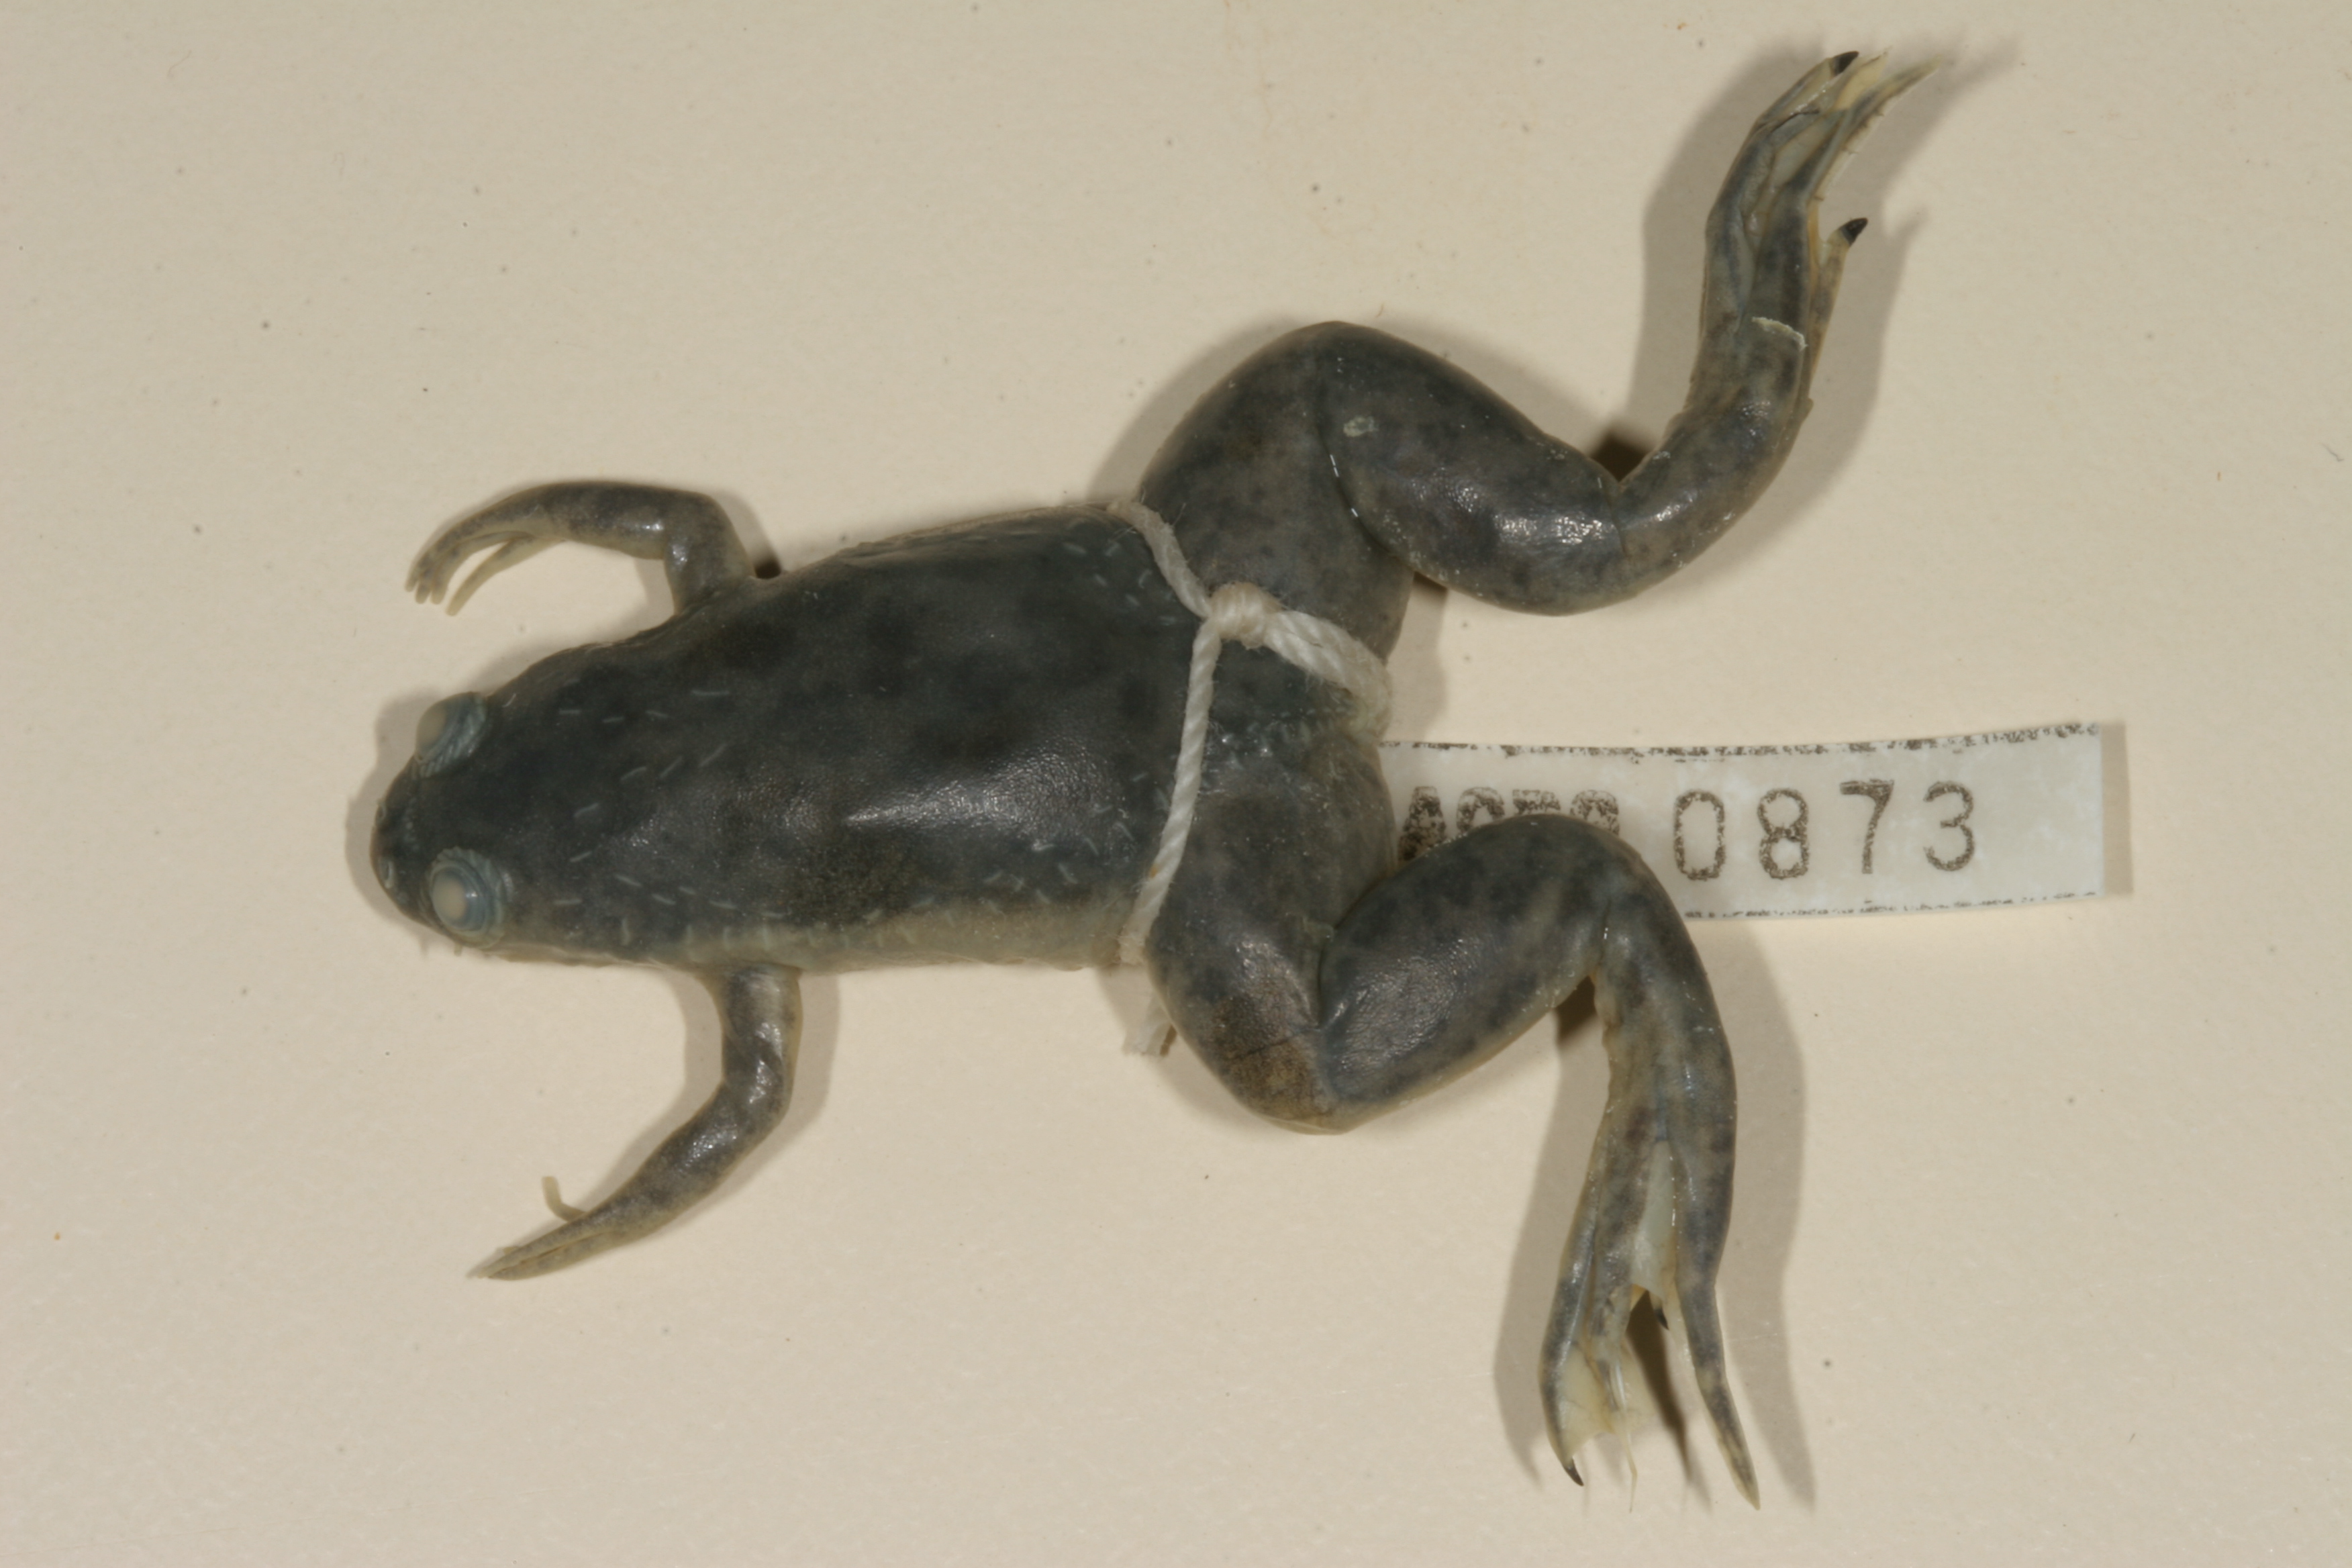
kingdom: Animalia
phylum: Chordata
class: Amphibia
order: Anura
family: Pipidae
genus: Xenopus
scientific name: Xenopus laevis
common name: African clawed frog
